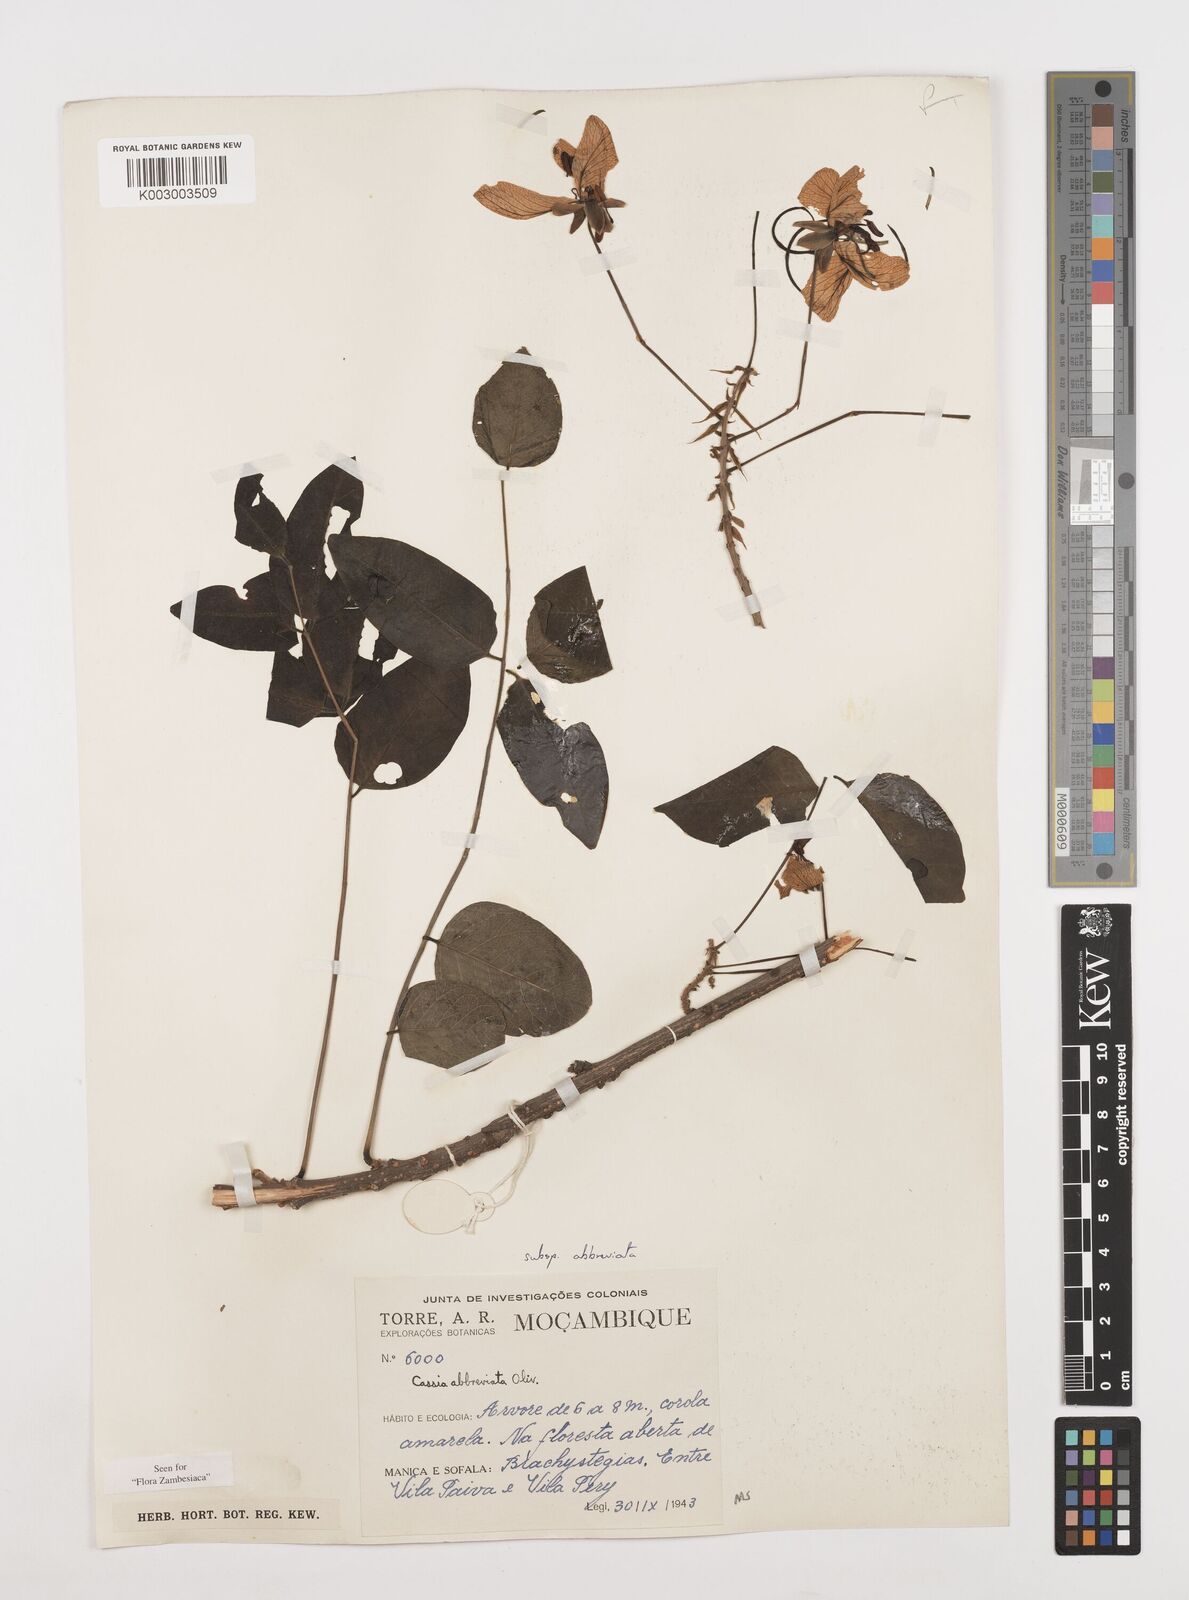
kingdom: Plantae
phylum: Tracheophyta
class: Magnoliopsida
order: Fabales
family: Fabaceae
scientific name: Fabaceae
